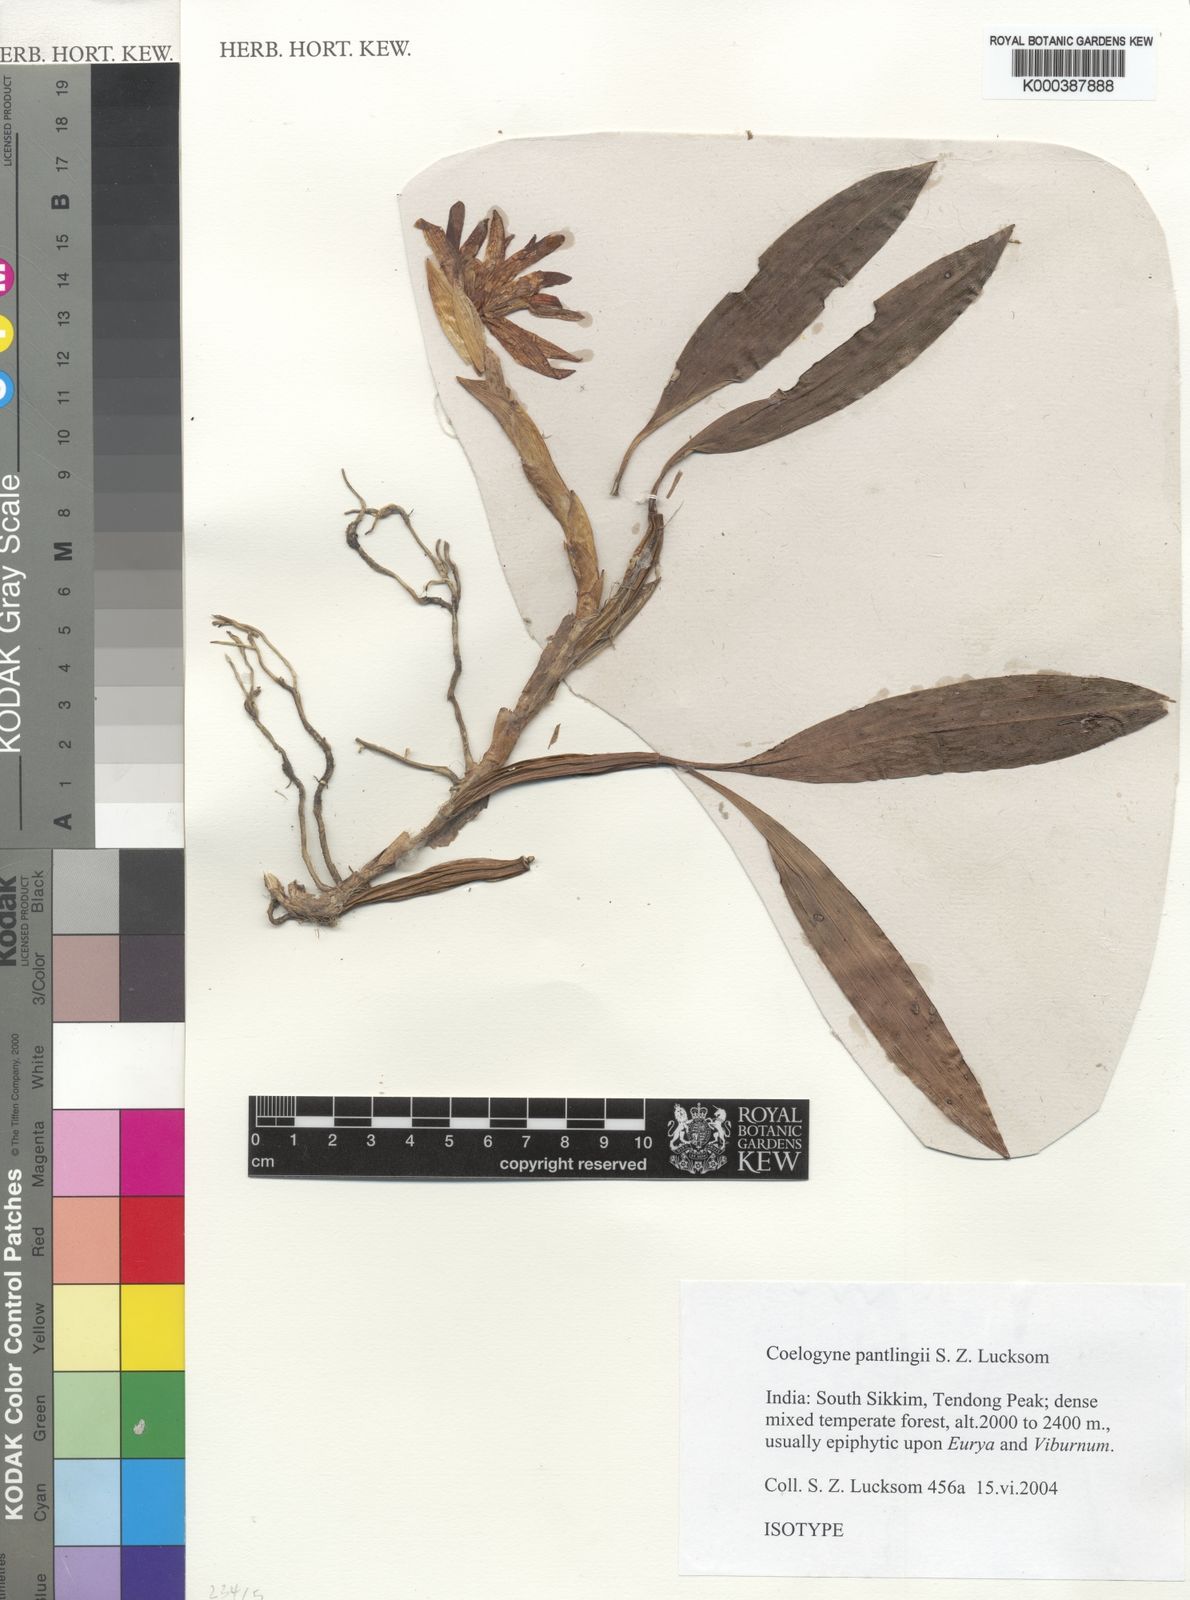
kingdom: Plantae
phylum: Tracheophyta
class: Liliopsida
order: Asparagales
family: Orchidaceae
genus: Coelogyne
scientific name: Coelogyne pantlingii
